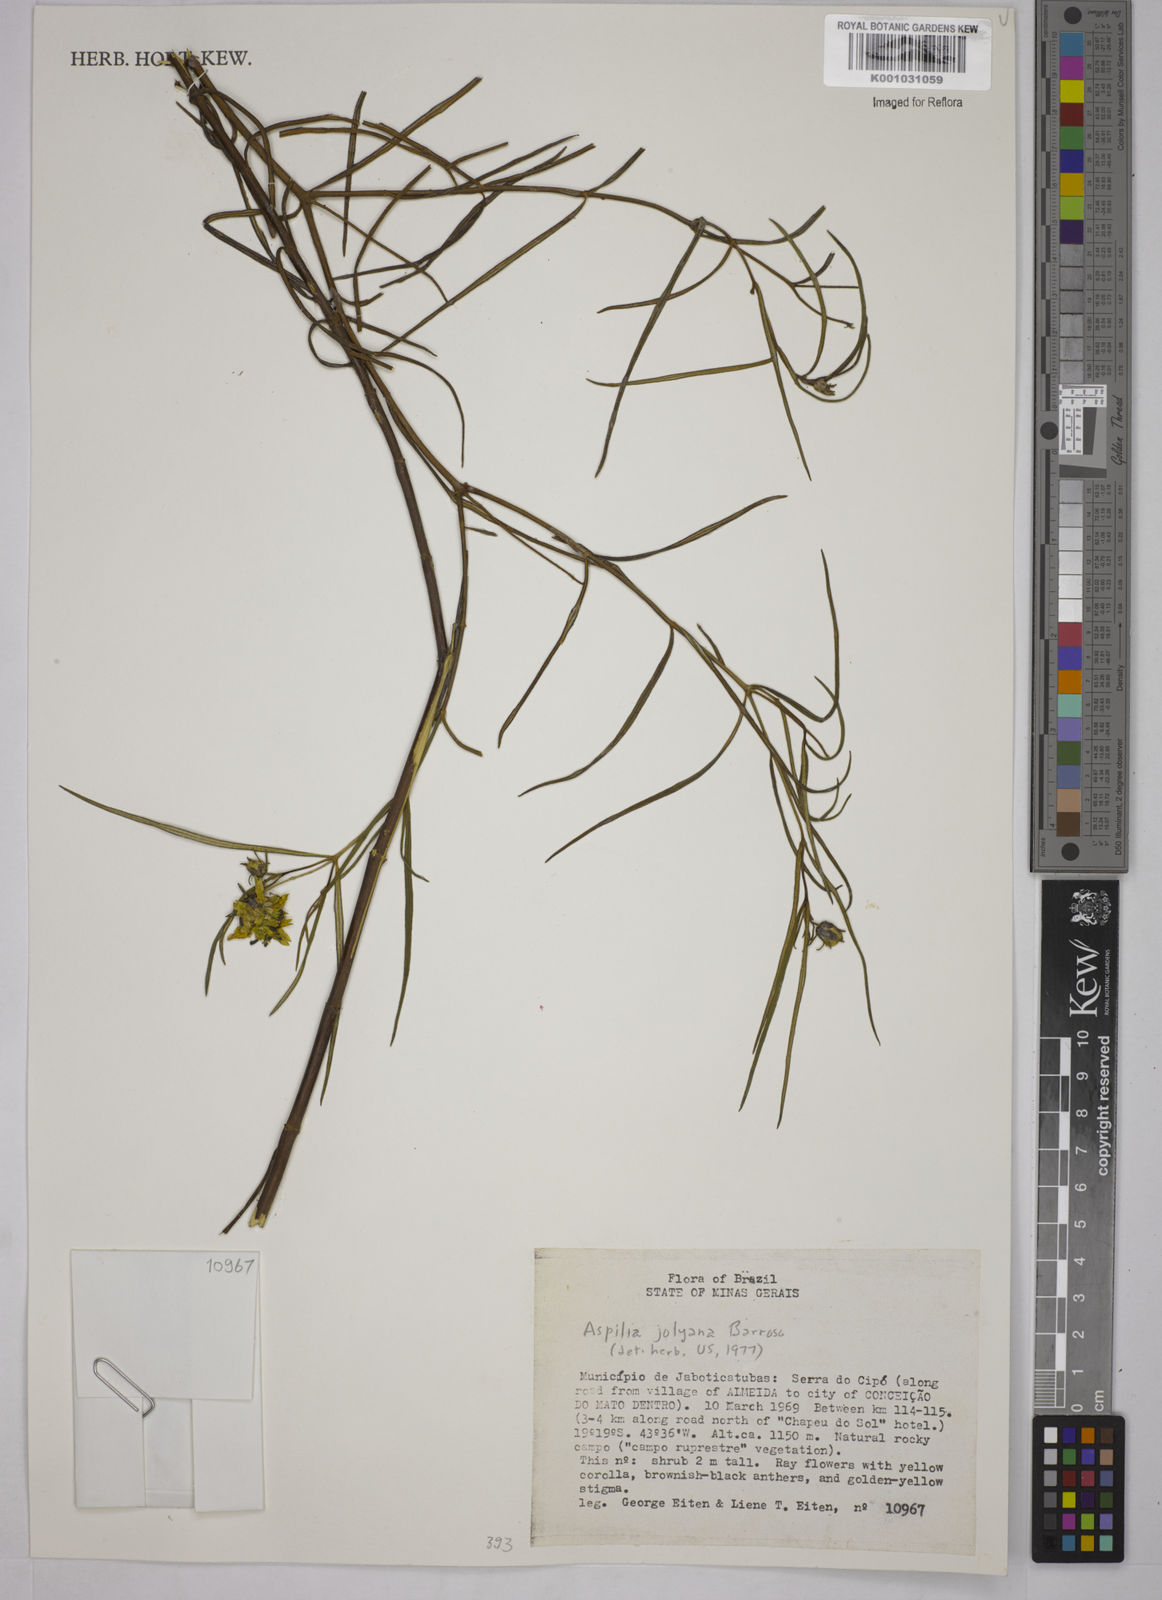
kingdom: Plantae
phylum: Tracheophyta
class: Magnoliopsida
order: Asterales
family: Asteraceae
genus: Aspilia
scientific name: Aspilia jolyana
